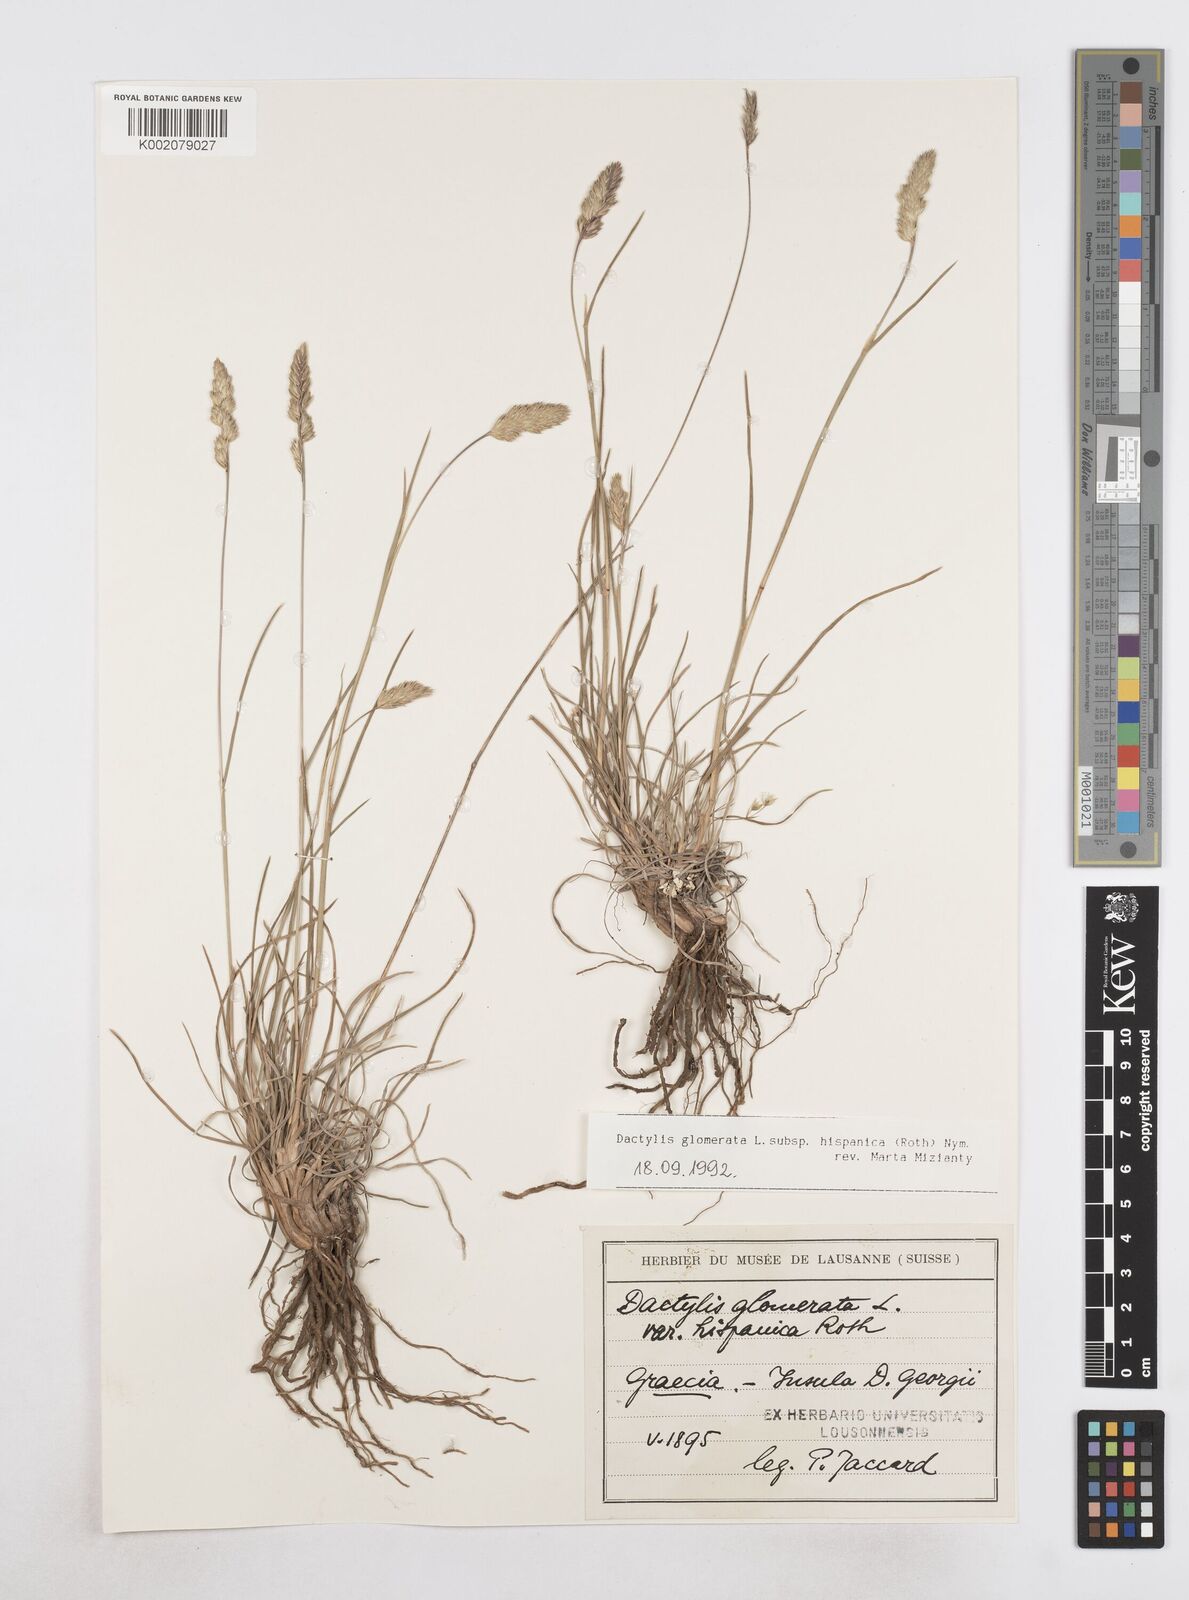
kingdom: Plantae
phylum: Tracheophyta
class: Liliopsida
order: Poales
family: Poaceae
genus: Dactylis
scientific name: Dactylis glomerata
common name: Orchardgrass
